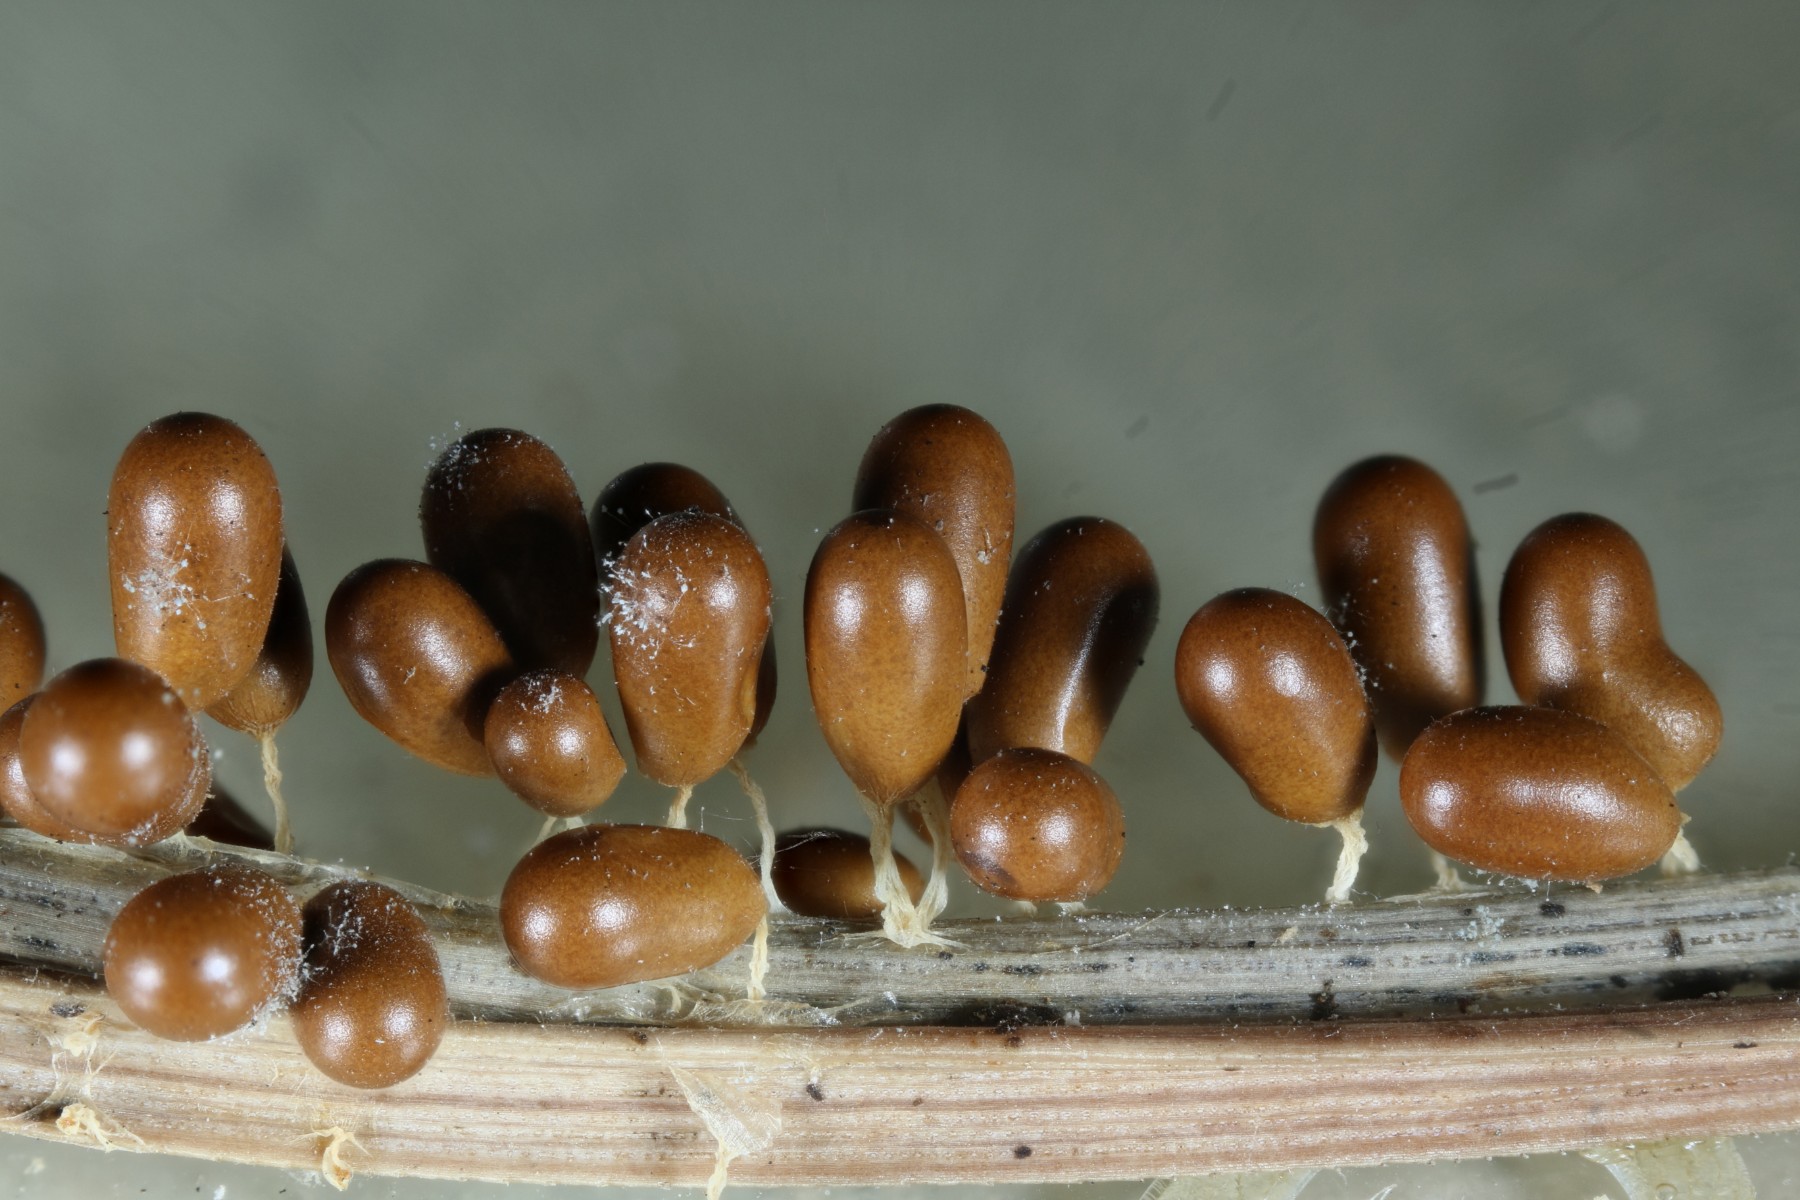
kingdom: Protozoa
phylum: Mycetozoa
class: Myxomycetes
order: Physarales
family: Physaraceae
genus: Leocarpus
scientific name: Leocarpus fragilis
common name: poleret glatfrø
